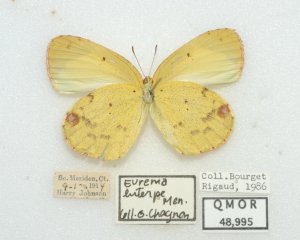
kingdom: Animalia
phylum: Arthropoda
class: Insecta
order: Lepidoptera
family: Pieridae
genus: Pyrisitia
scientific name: Pyrisitia lisa
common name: Little Yellow
